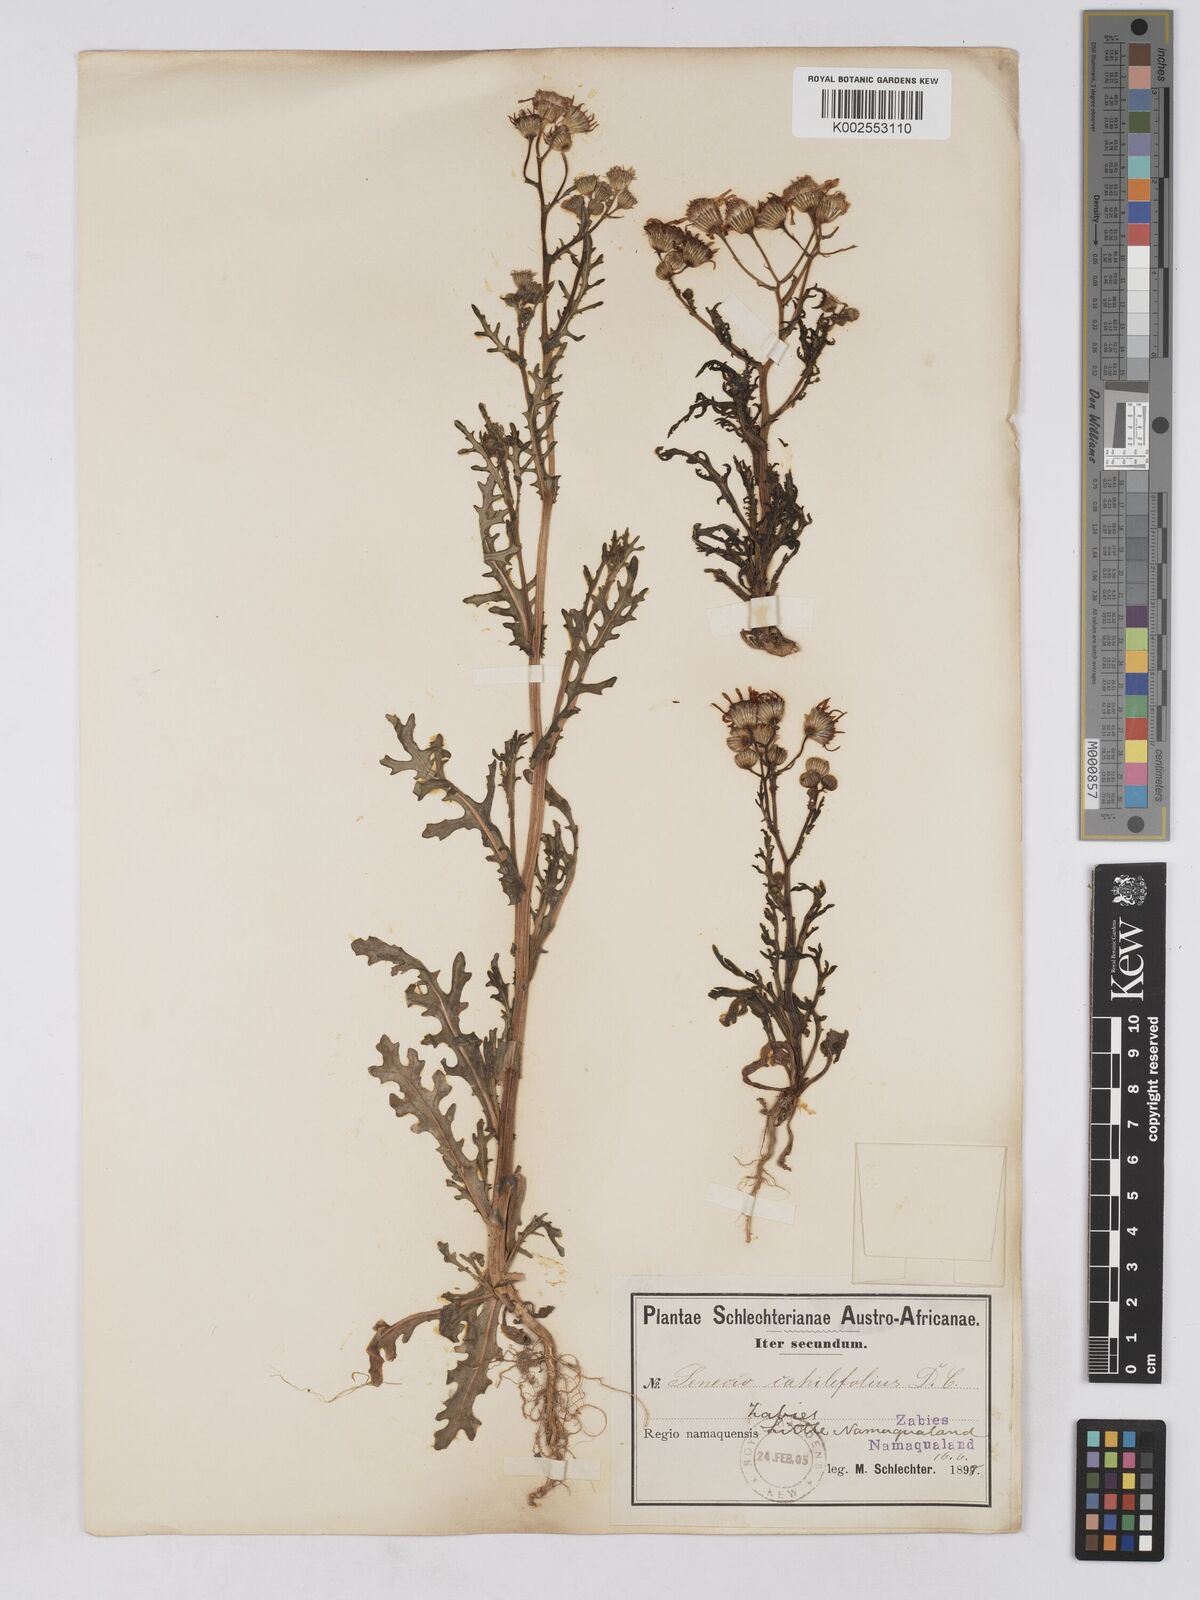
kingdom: Plantae
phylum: Tracheophyta
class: Magnoliopsida
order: Asterales
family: Asteraceae
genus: Senecio
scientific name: Senecio arenarius
